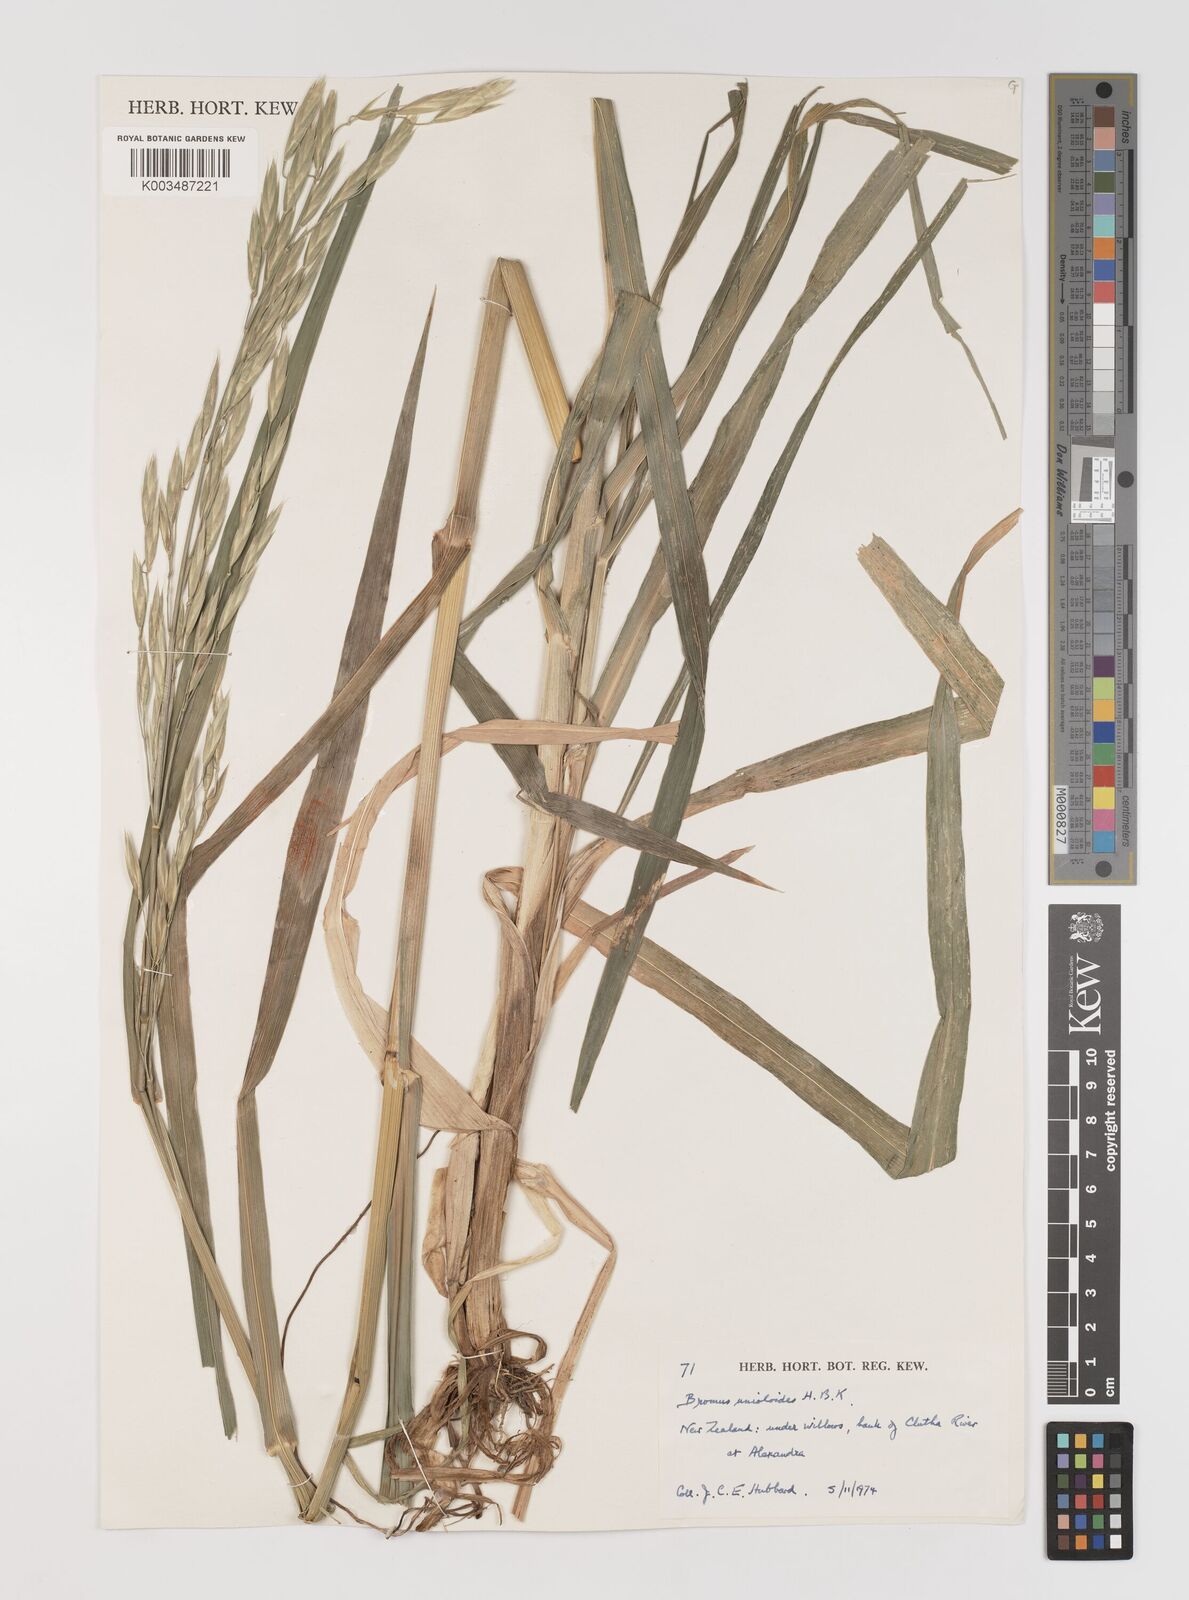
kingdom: Plantae
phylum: Tracheophyta
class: Liliopsida
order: Poales
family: Poaceae
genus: Bromus
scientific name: Bromus catharticus
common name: Rescuegrass
